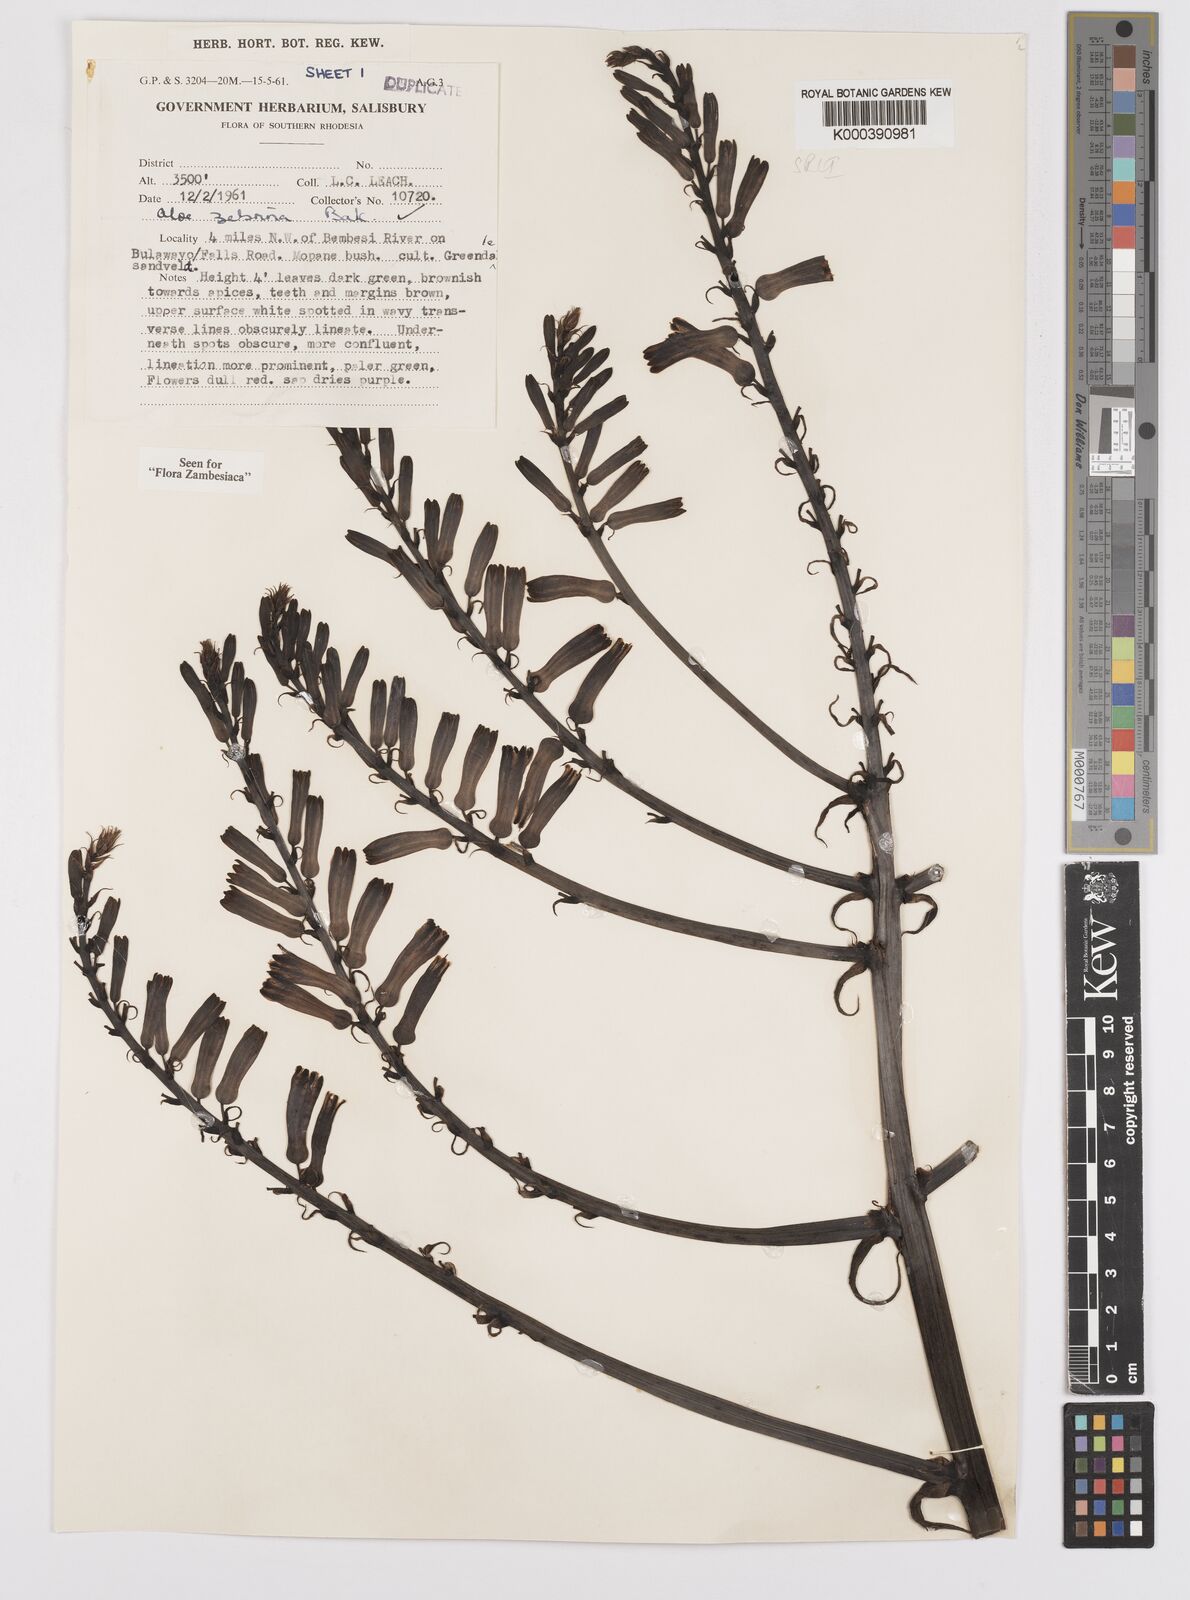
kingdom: Plantae
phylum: Tracheophyta
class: Liliopsida
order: Asparagales
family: Asphodelaceae
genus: Aloe
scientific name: Aloe zebrina
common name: Zebra-leaf aloe
